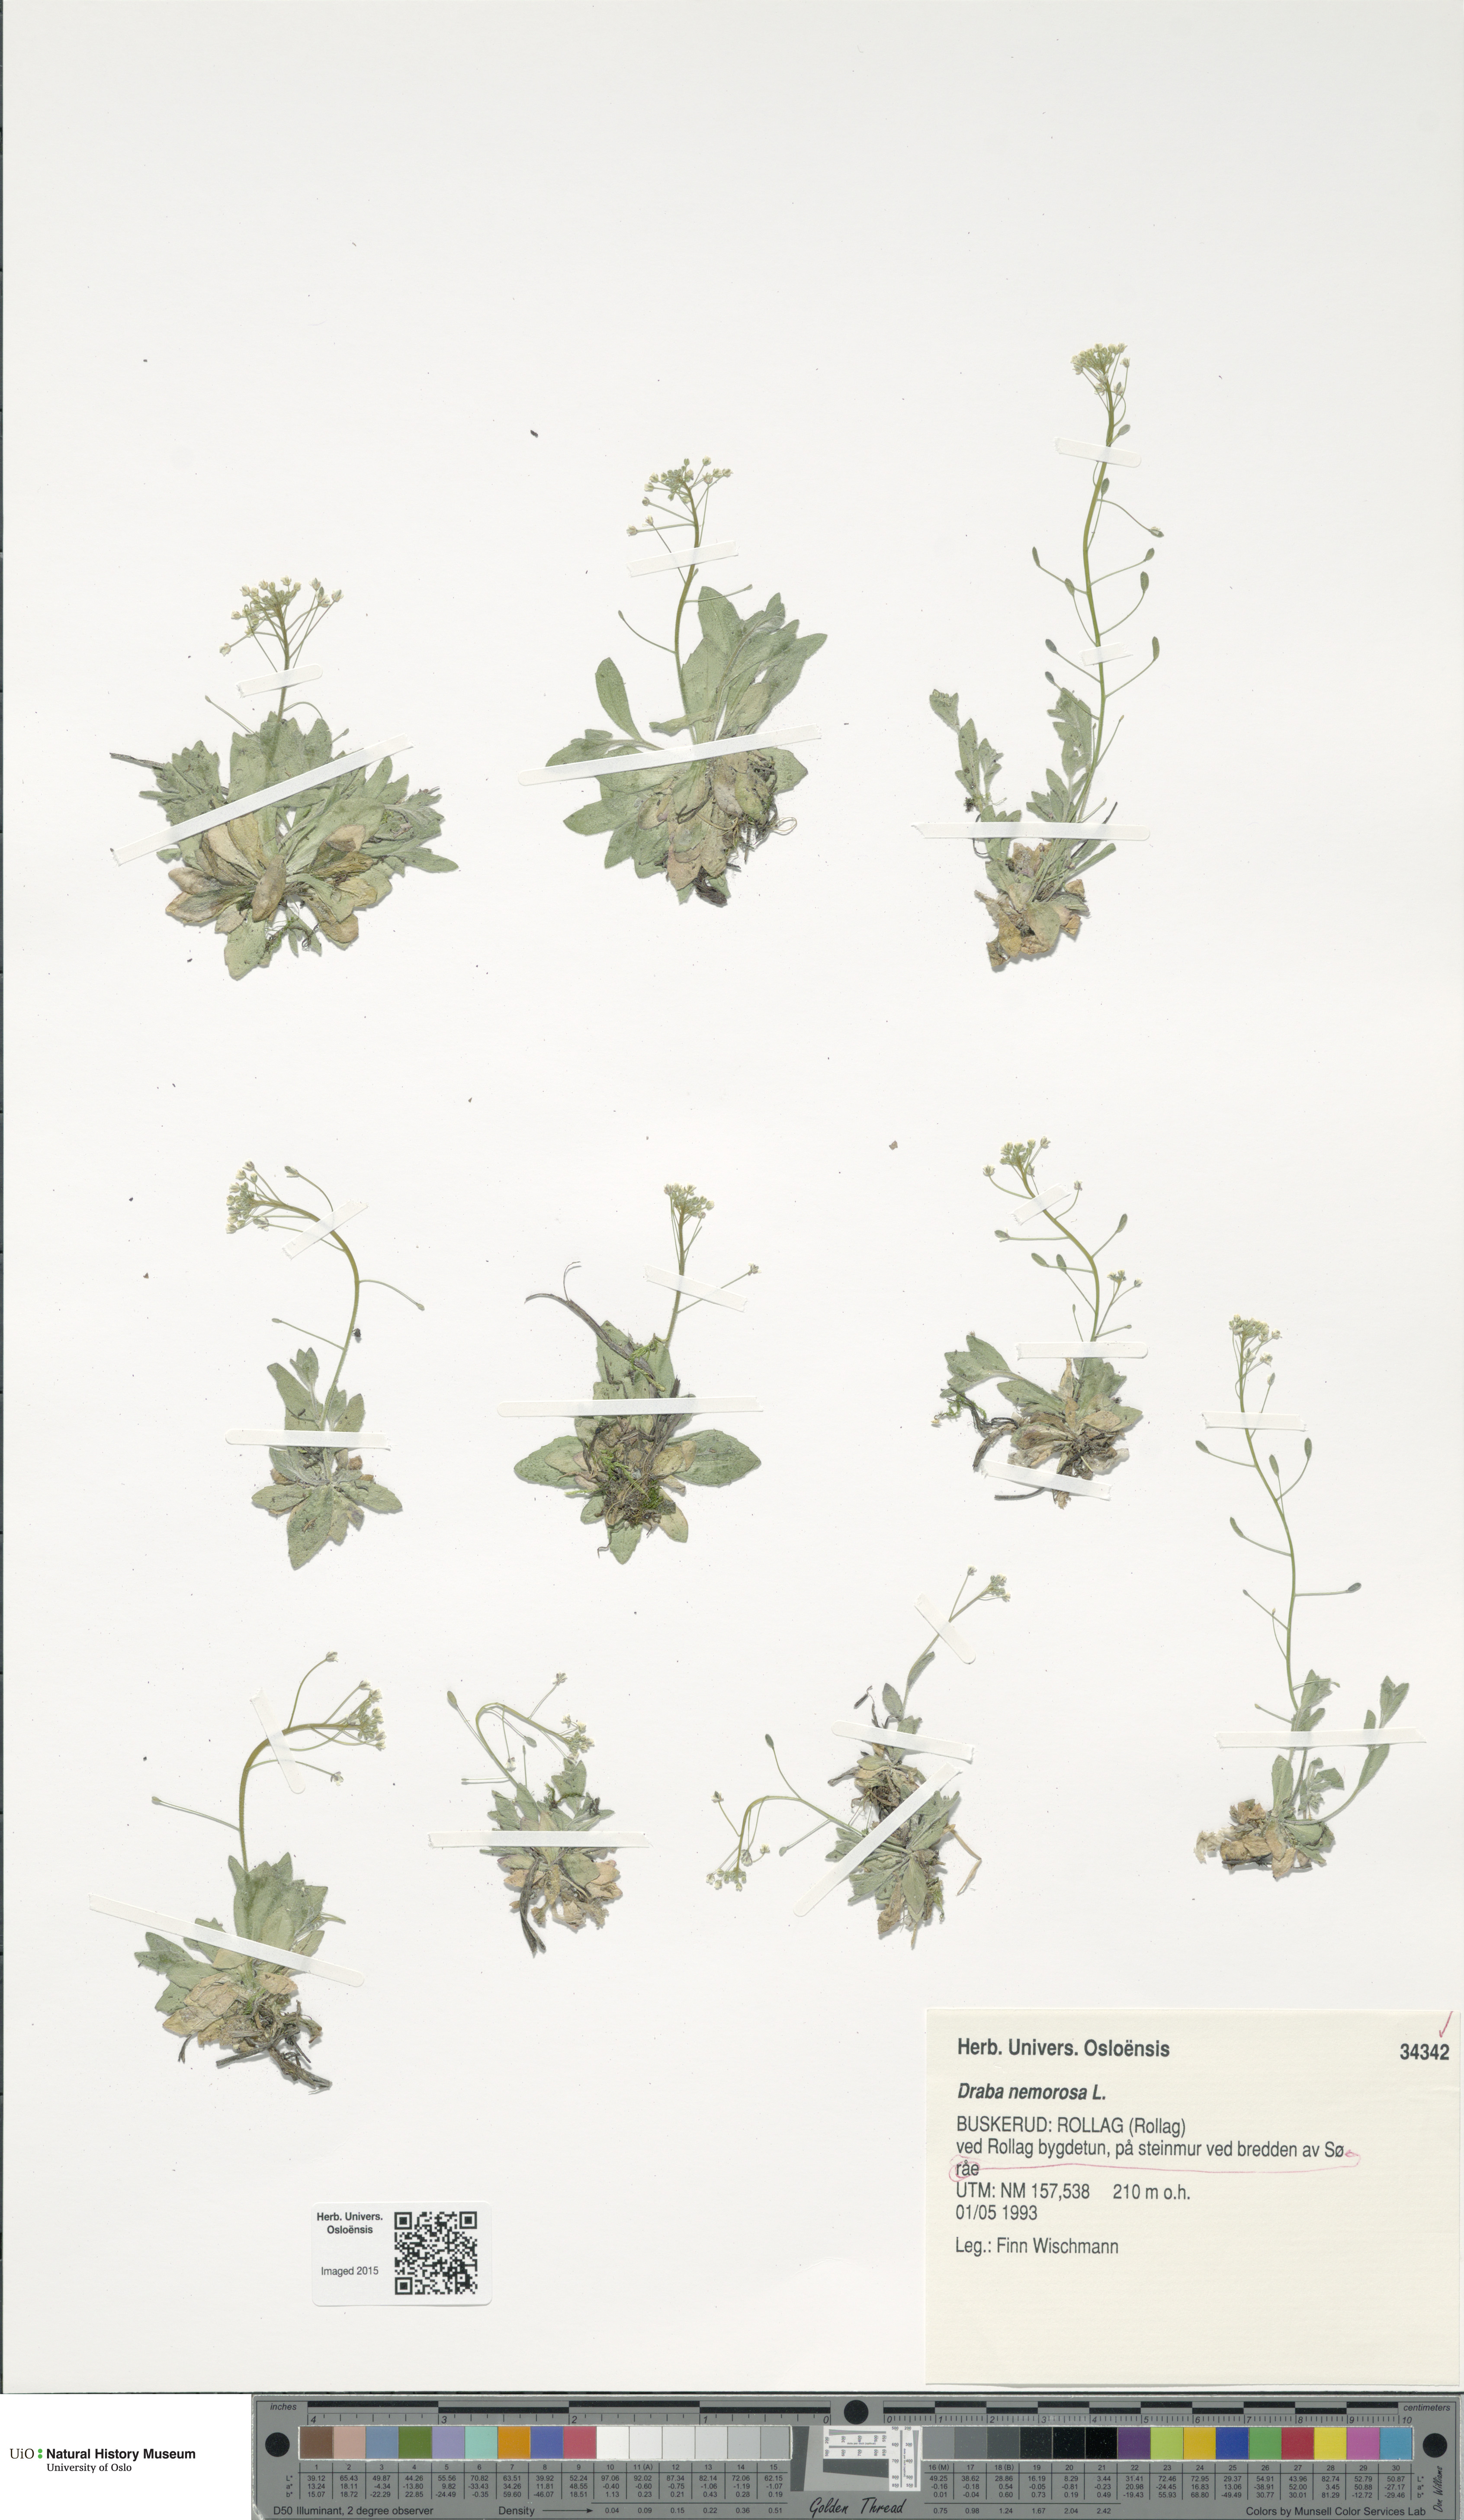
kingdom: Plantae
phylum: Tracheophyta
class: Magnoliopsida
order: Brassicales
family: Brassicaceae
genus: Draba
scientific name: Draba nemorosa
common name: Wood whitlow-grass
